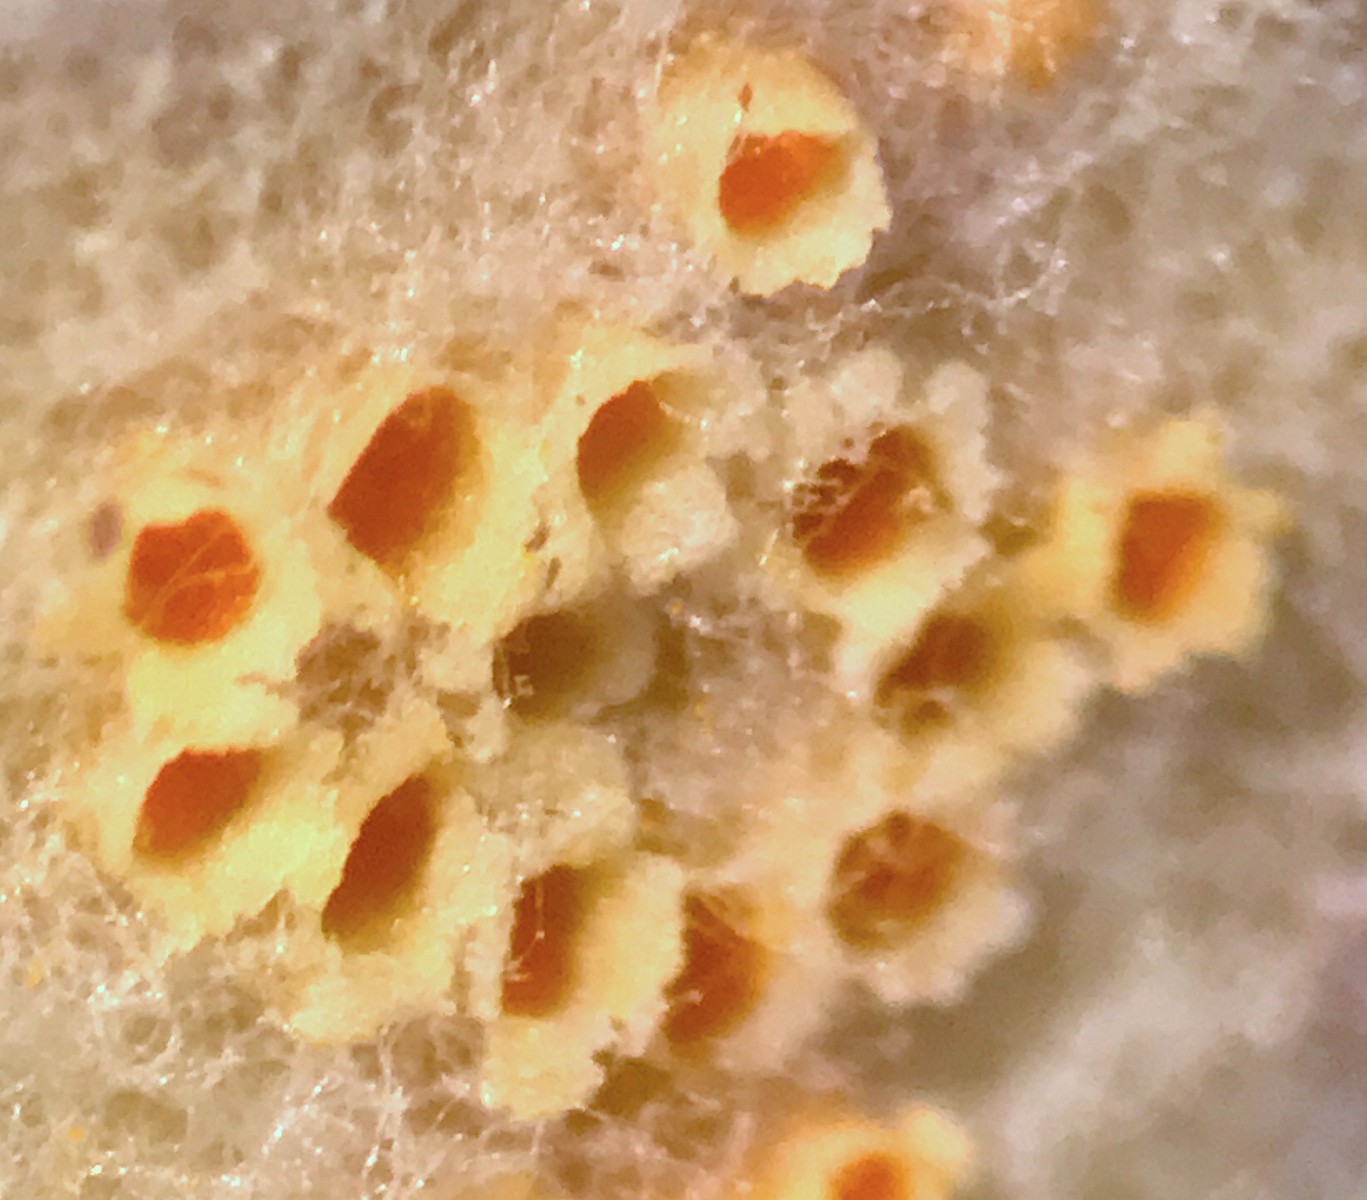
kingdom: Fungi
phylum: Basidiomycota
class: Pucciniomycetes
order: Pucciniales
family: Pucciniaceae
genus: Puccinia
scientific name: Puccinia poarum
